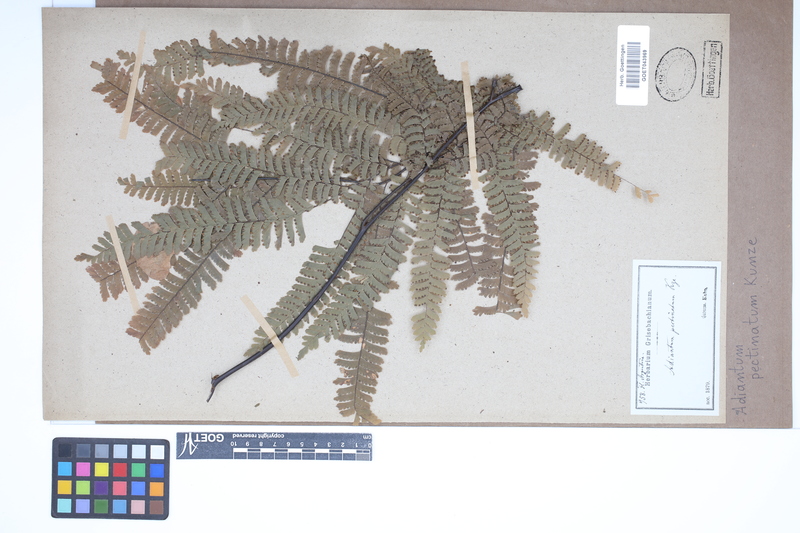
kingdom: Plantae
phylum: Tracheophyta
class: Polypodiopsida
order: Polypodiales
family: Pteridaceae
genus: Adiantum
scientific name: Adiantum pectinatum
